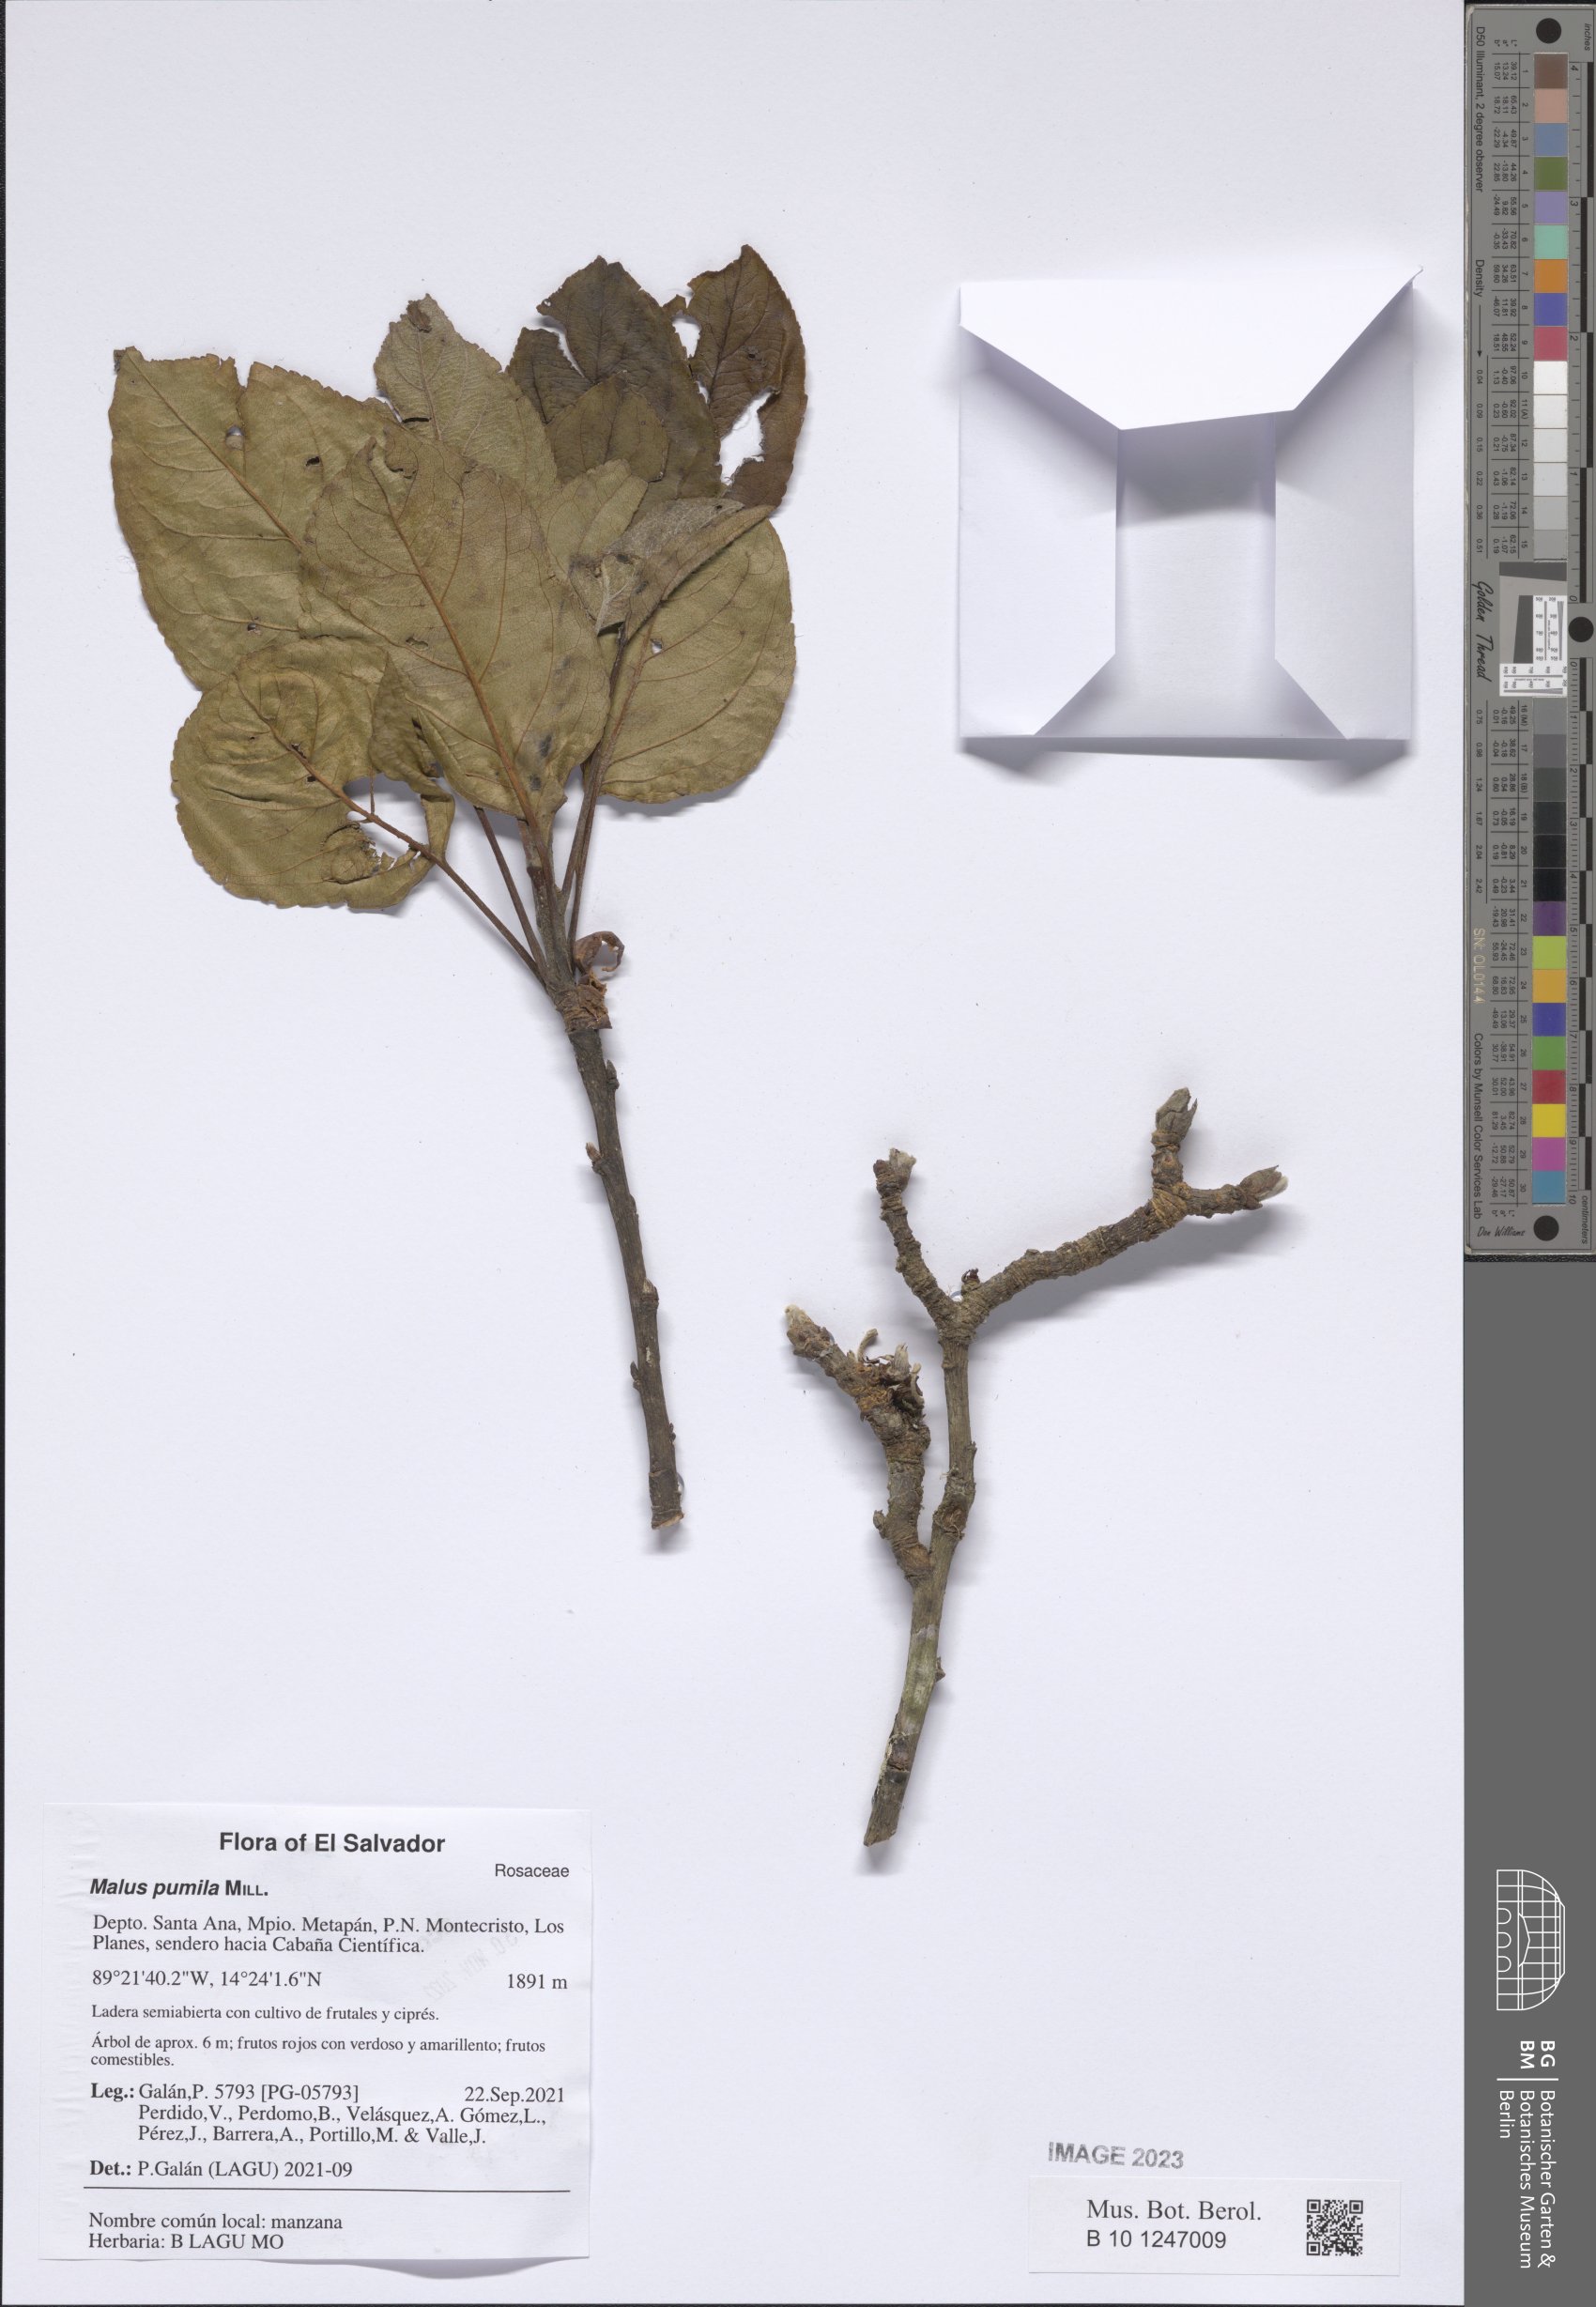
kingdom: Plantae
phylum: Tracheophyta
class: Magnoliopsida
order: Rosales
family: Rosaceae
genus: Malus
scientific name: Malus domestica
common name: Apple
